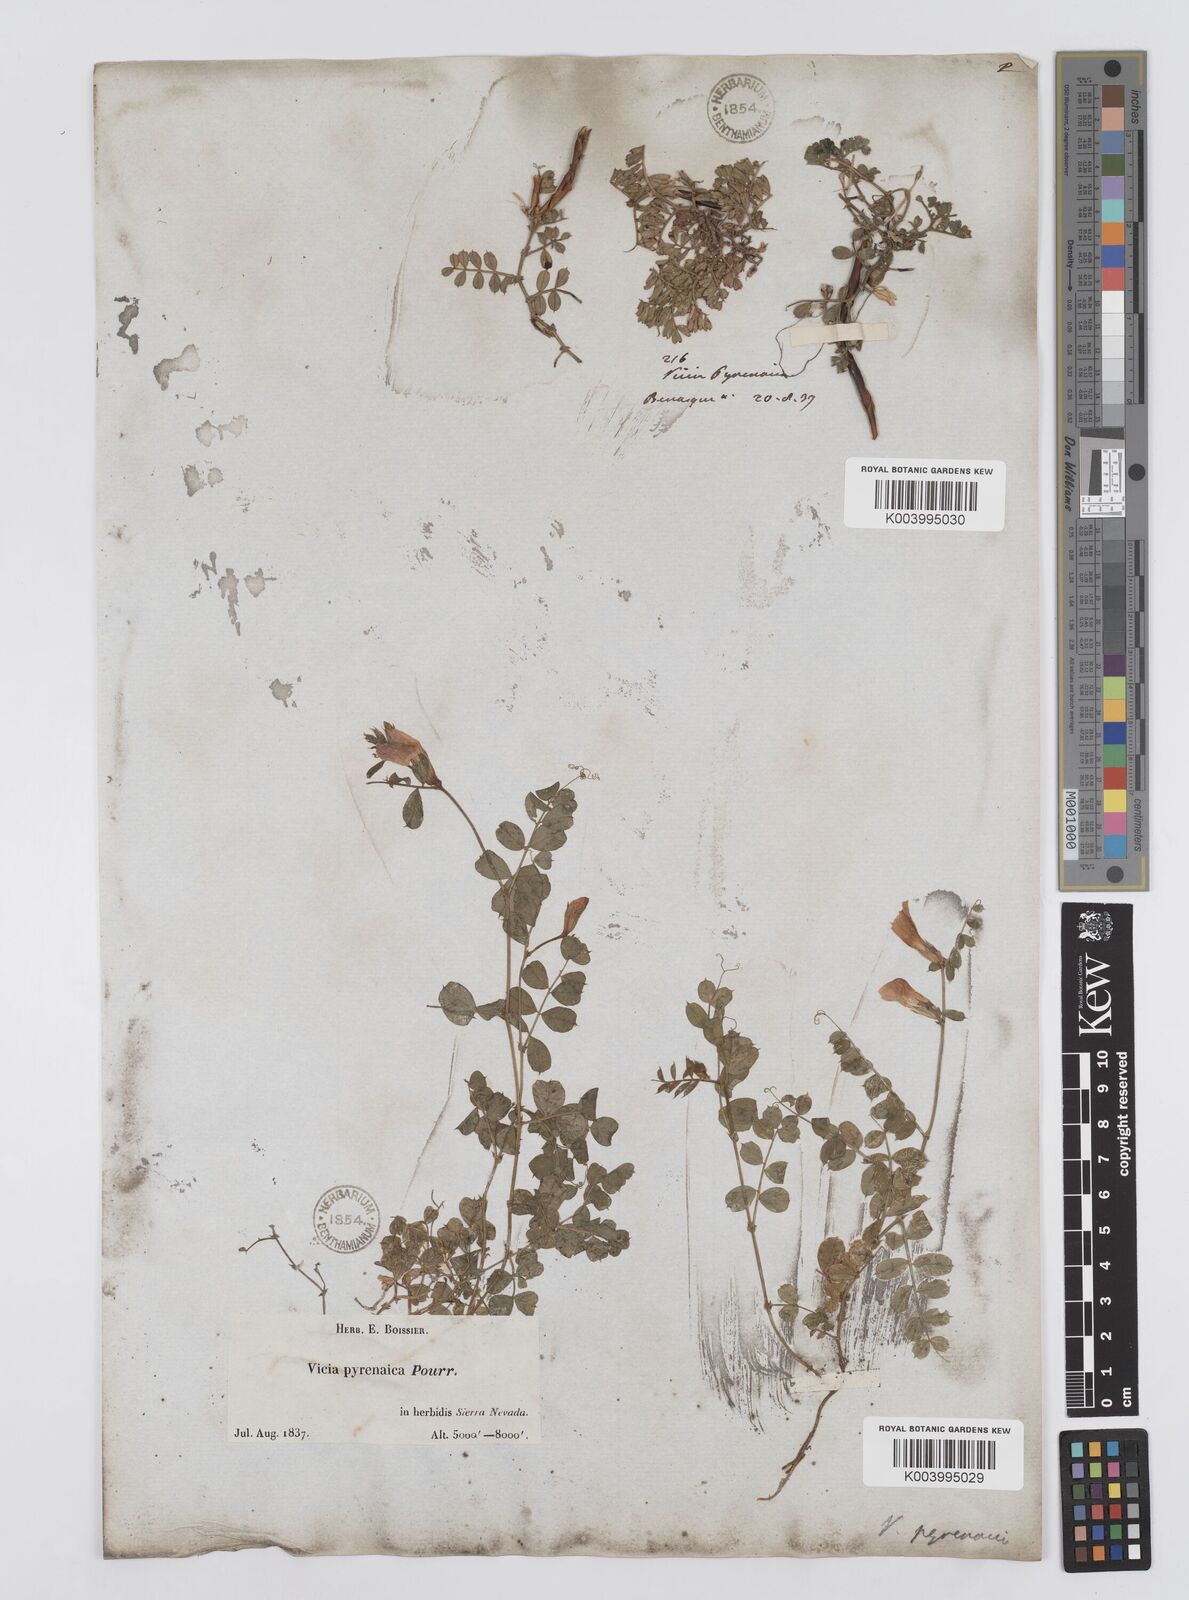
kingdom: Plantae
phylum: Tracheophyta
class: Magnoliopsida
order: Fabales
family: Fabaceae
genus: Vicia
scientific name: Vicia pyrenaica
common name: Pyrenean vetch
